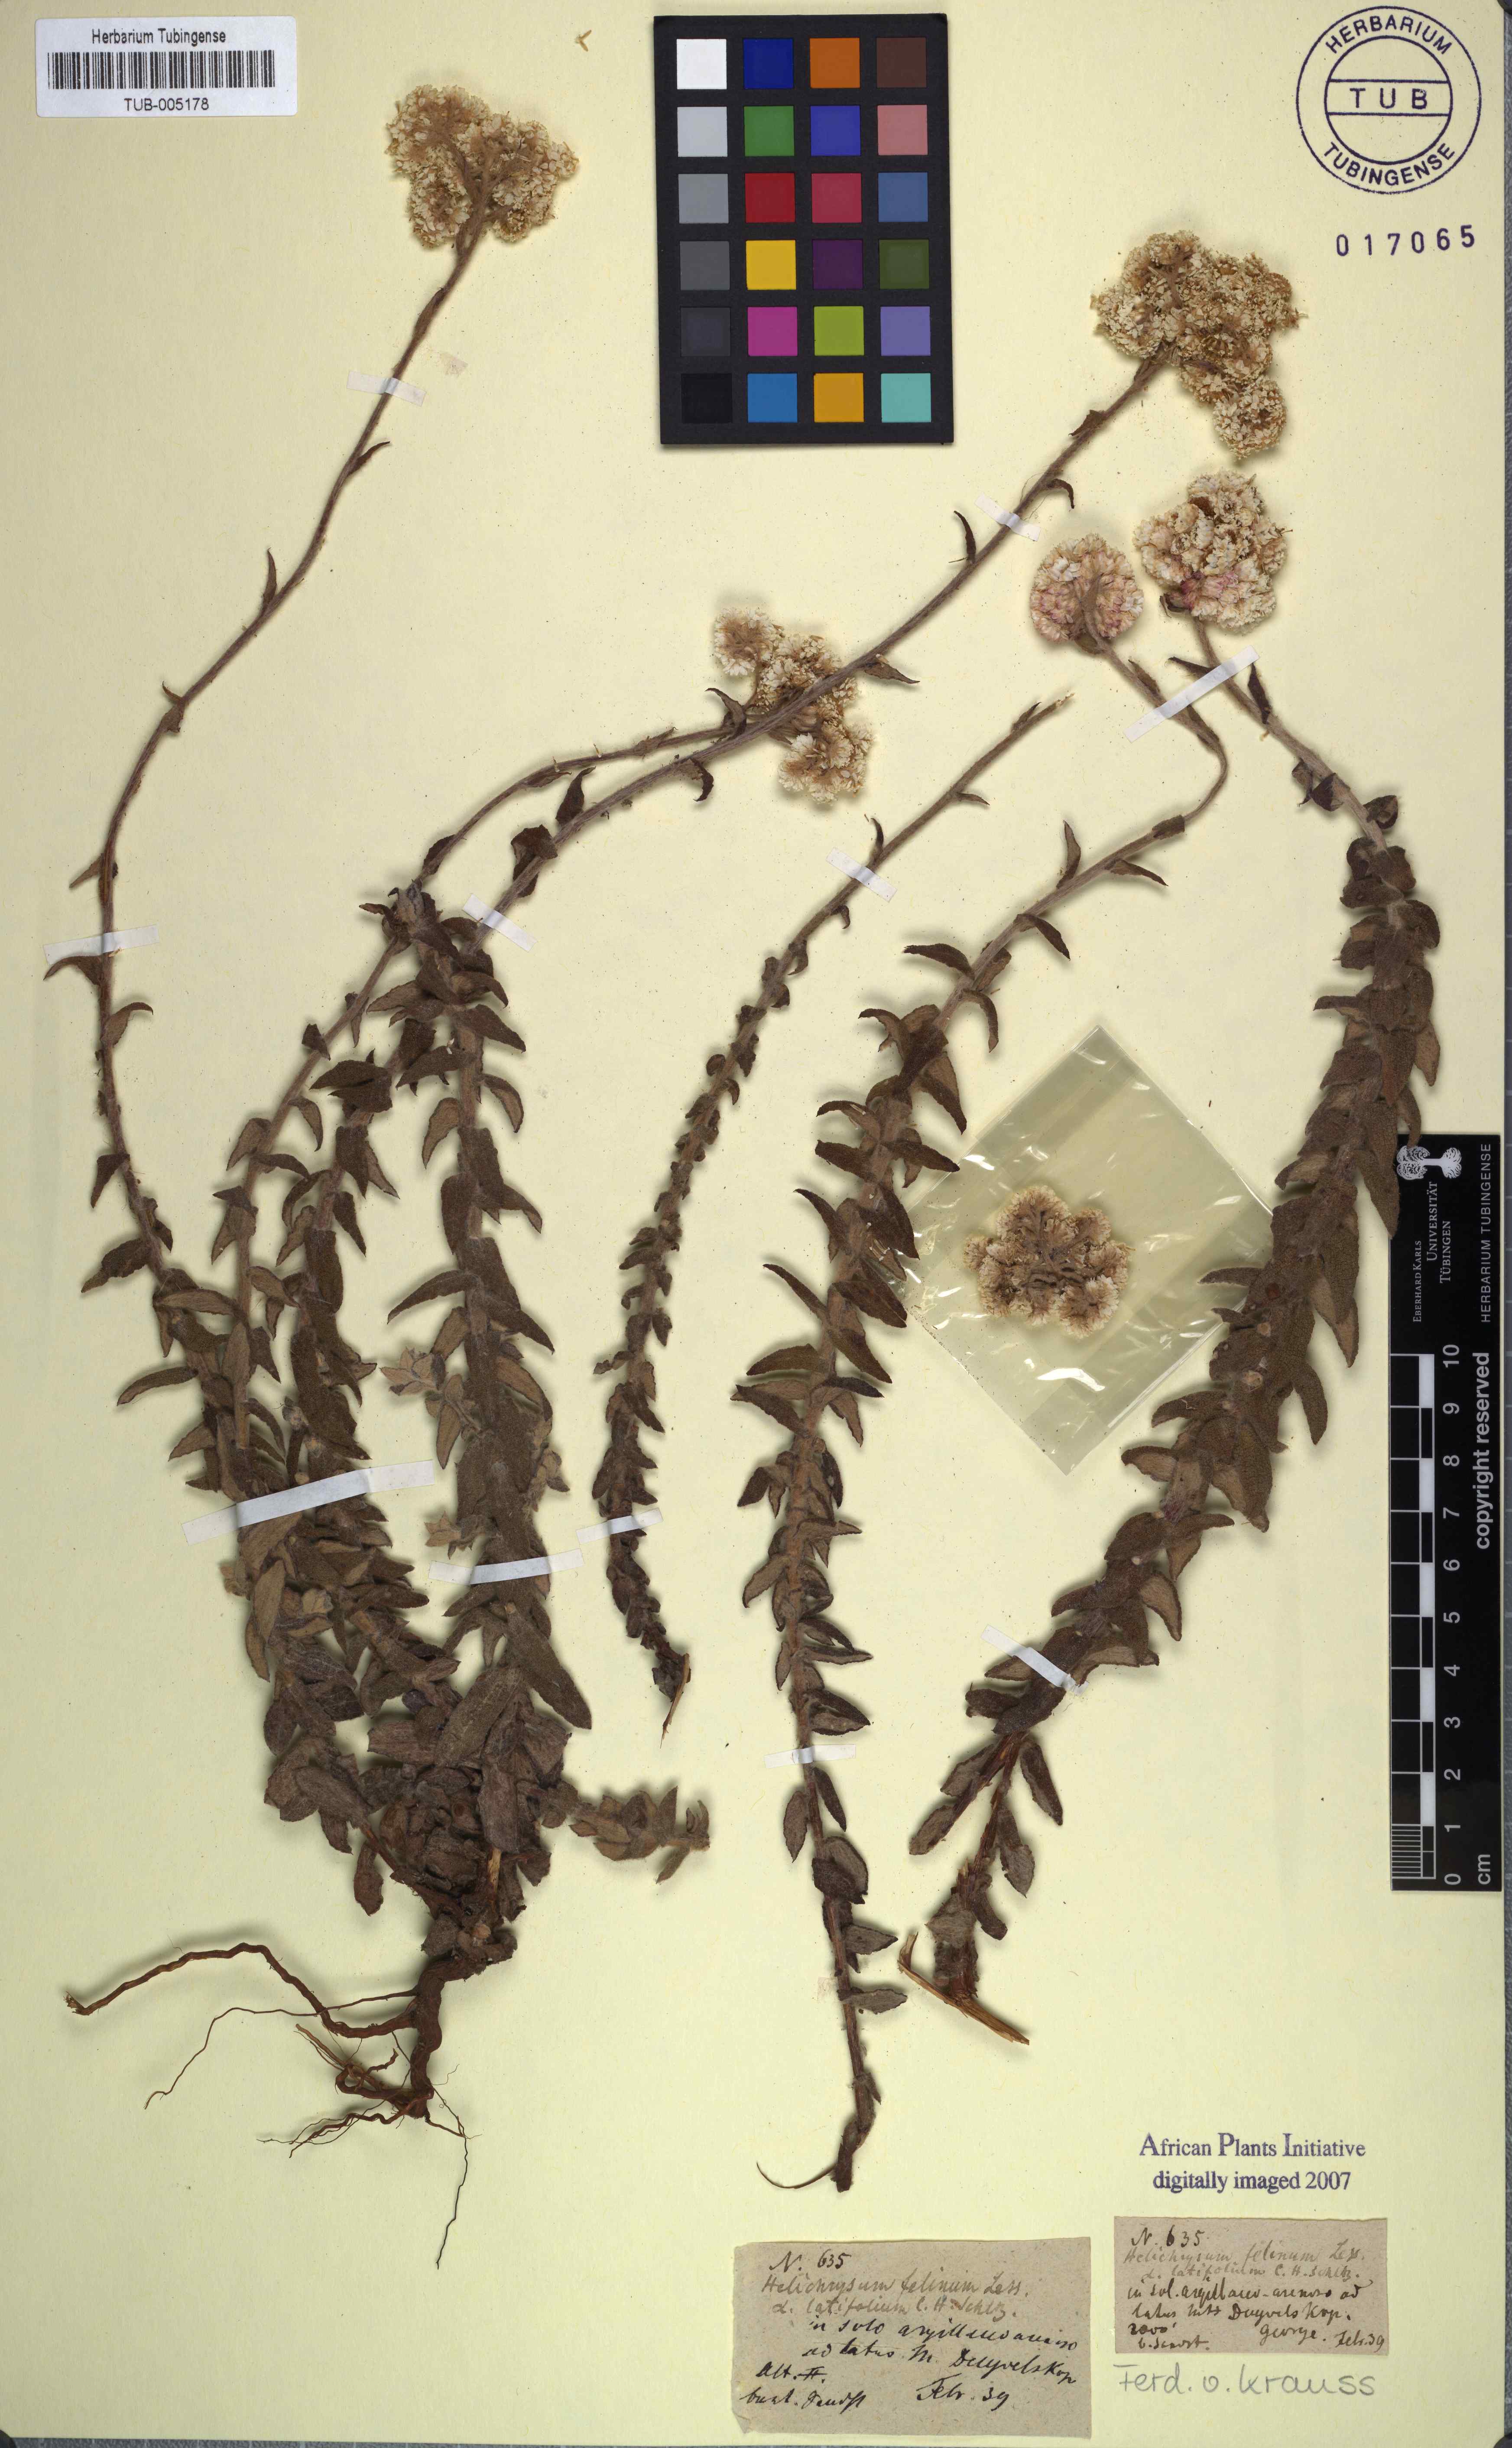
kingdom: Plantae
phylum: Tracheophyta
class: Magnoliopsida
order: Asterales
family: Asteraceae
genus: Helichrysum
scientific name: Helichrysum felinum
